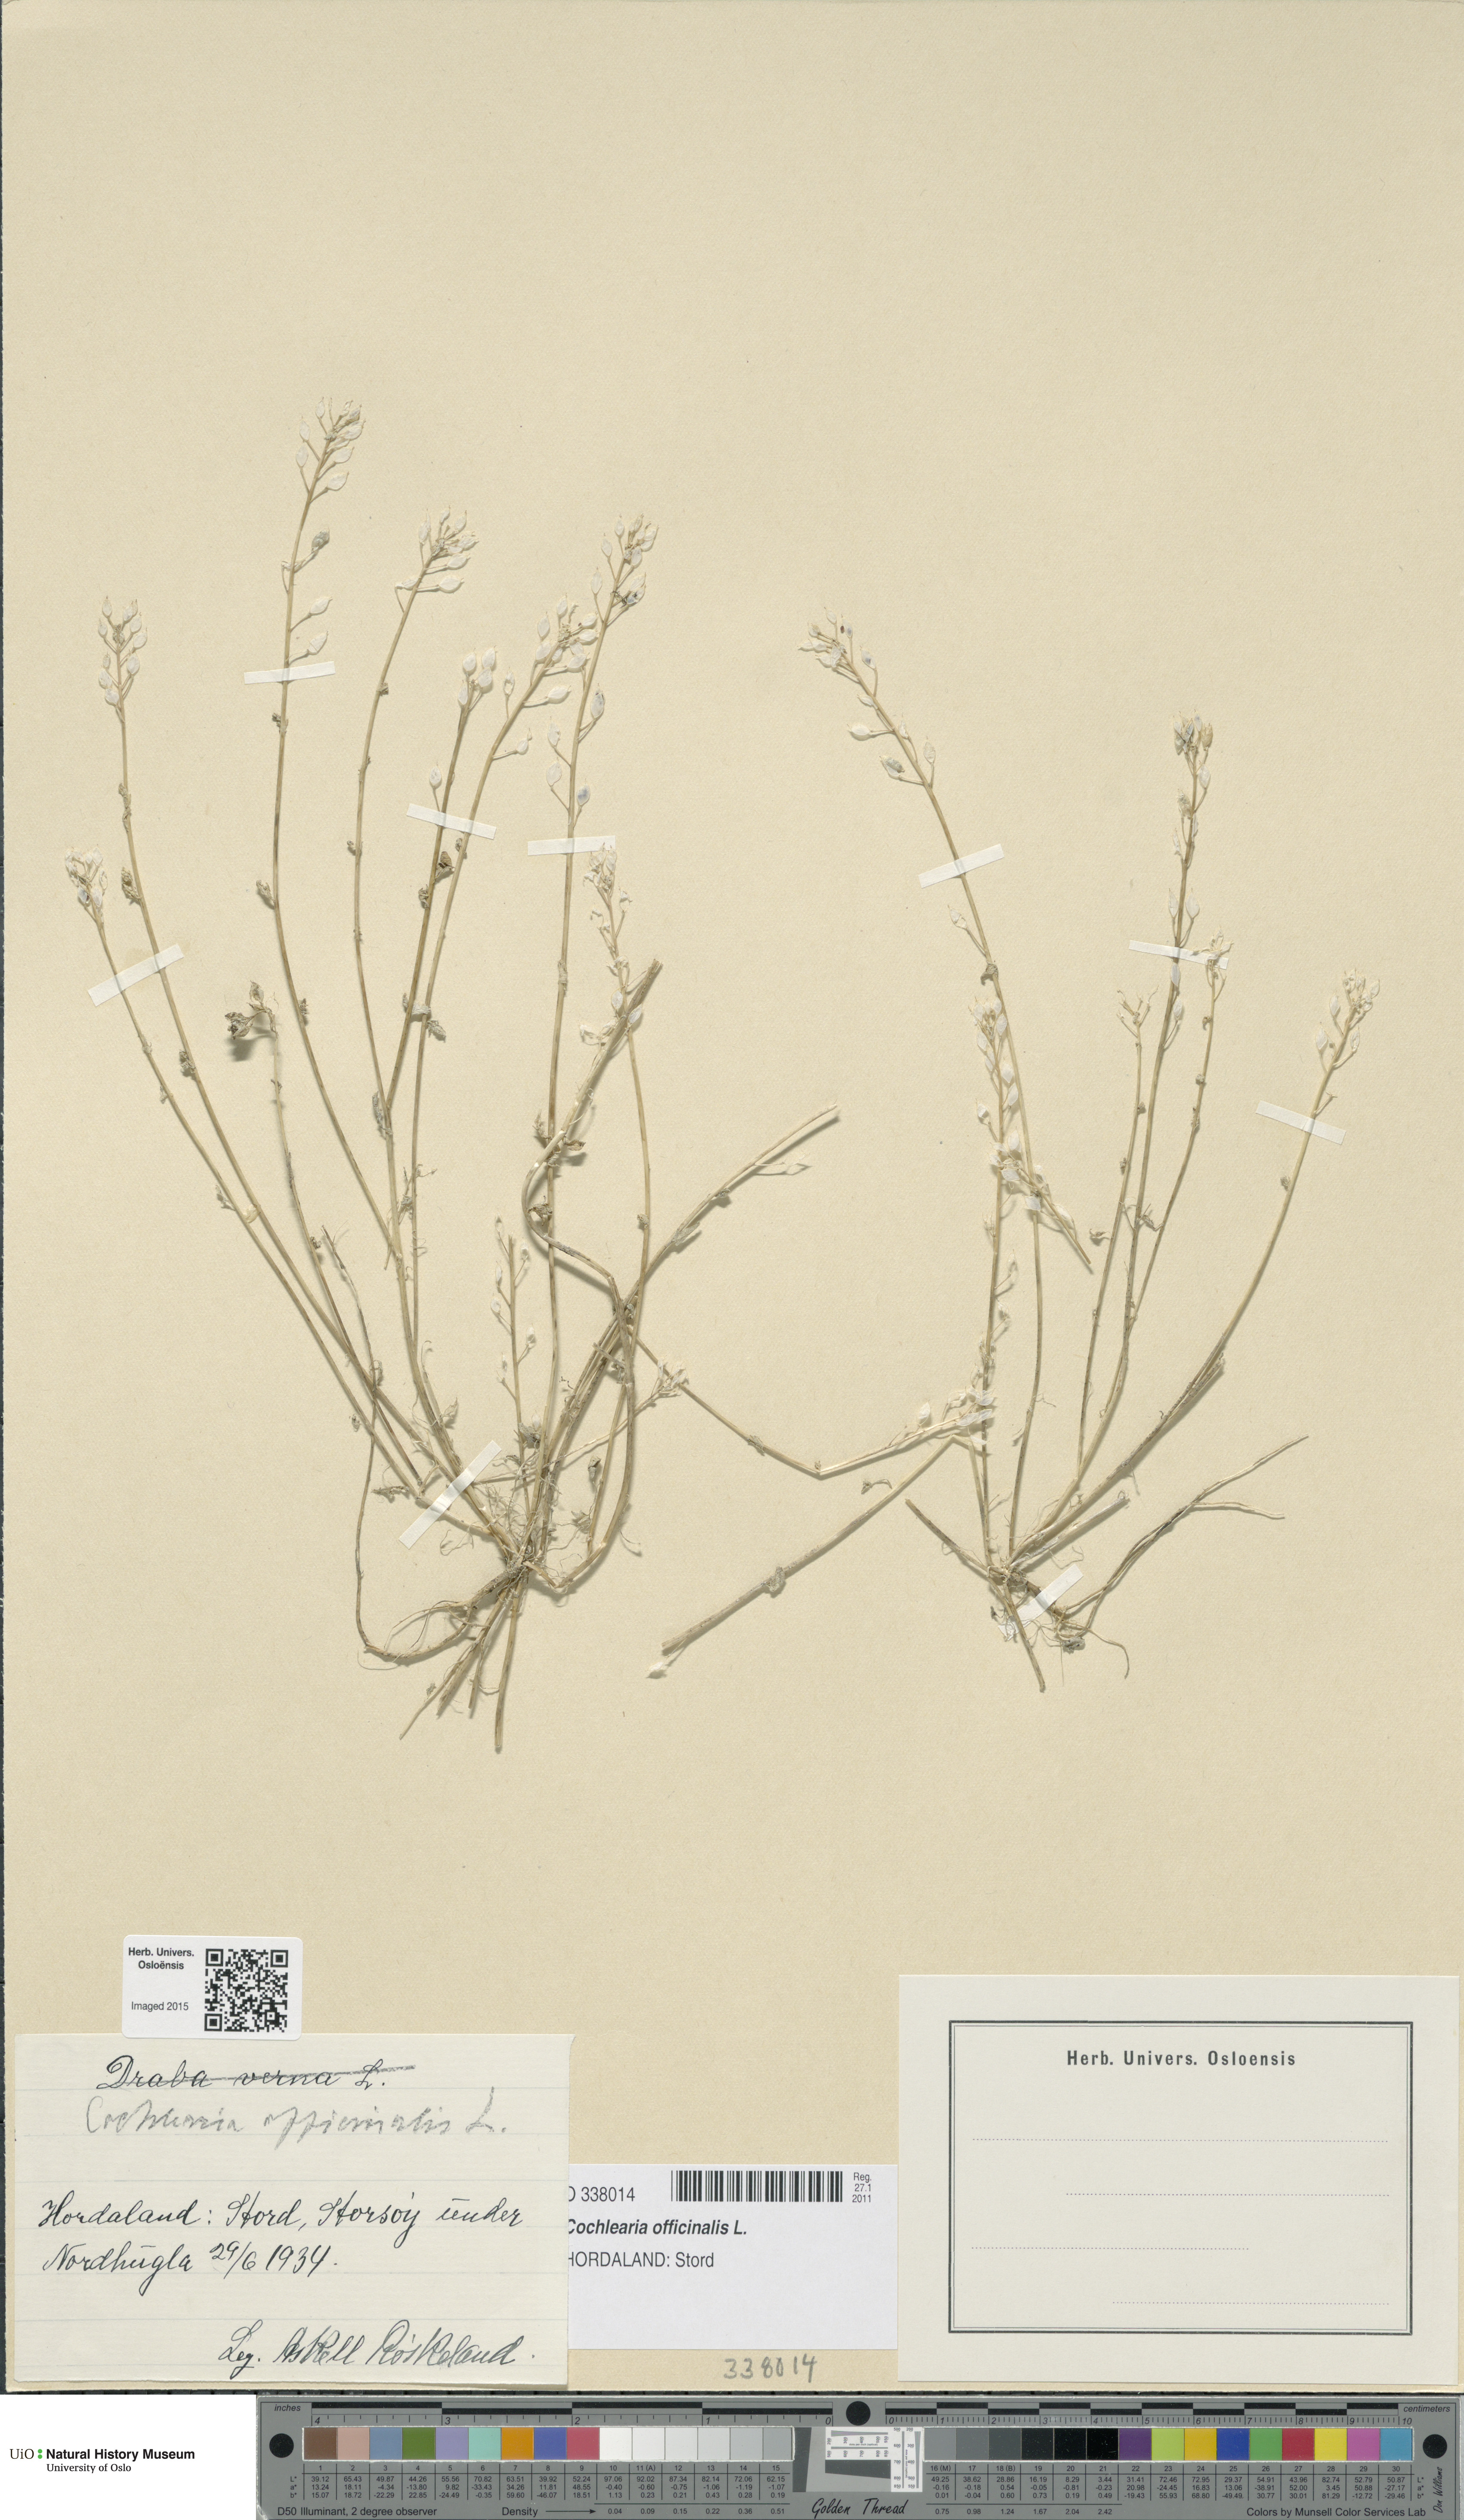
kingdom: Plantae
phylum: Tracheophyta
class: Magnoliopsida
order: Brassicales
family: Brassicaceae
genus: Cochlearia
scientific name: Cochlearia officinalis
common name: Scurvy-grass
